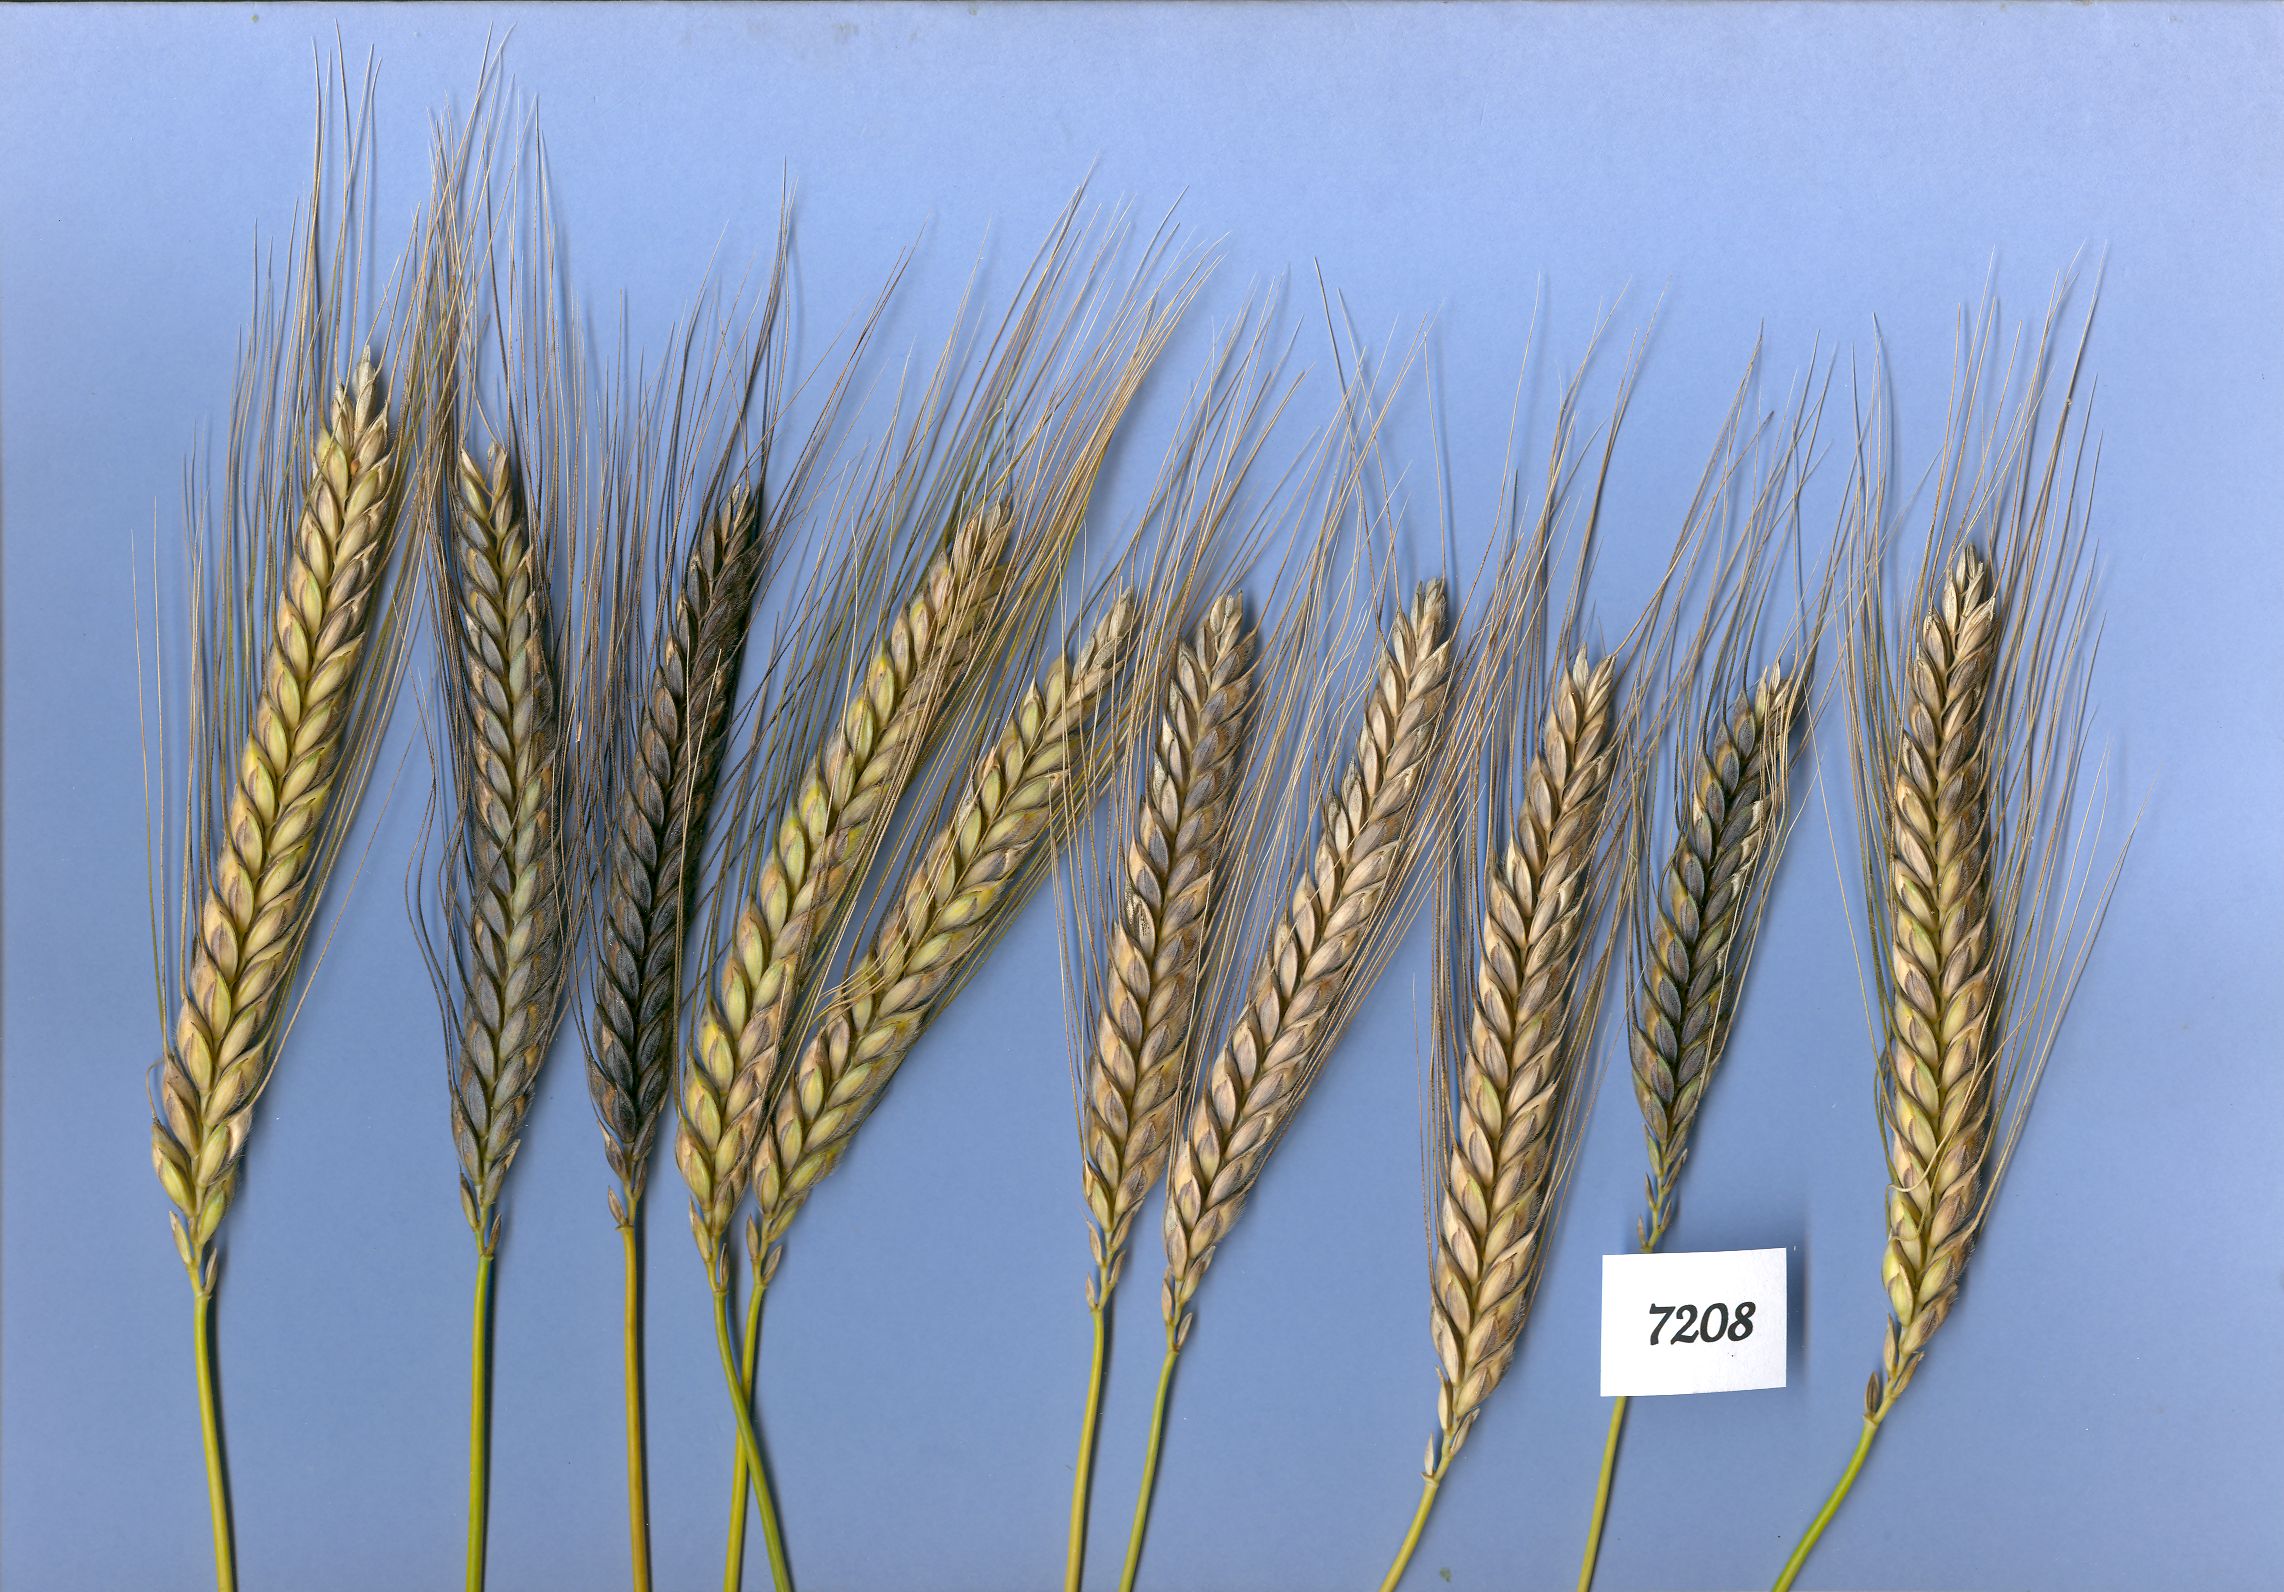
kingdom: Plantae
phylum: Tracheophyta
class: Liliopsida
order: Poales
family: Poaceae
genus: Triticum
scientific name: Triticum turgidum
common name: Rivet wheat
